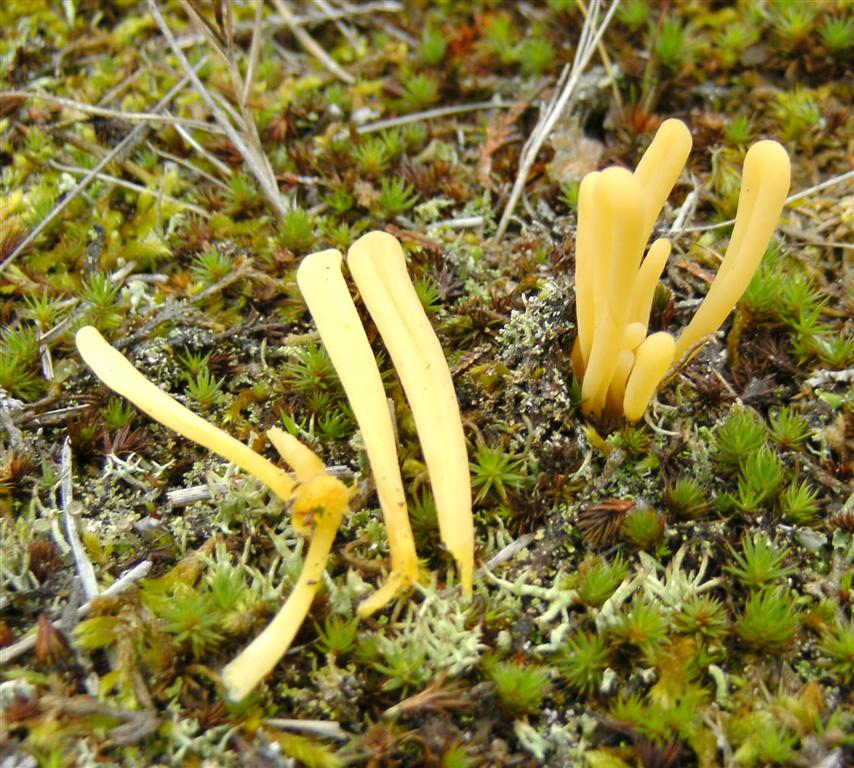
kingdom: Fungi
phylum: Basidiomycota
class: Agaricomycetes
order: Agaricales
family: Clavariaceae
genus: Clavaria
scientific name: Clavaria argillacea
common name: lerfarvet køllesvamp
